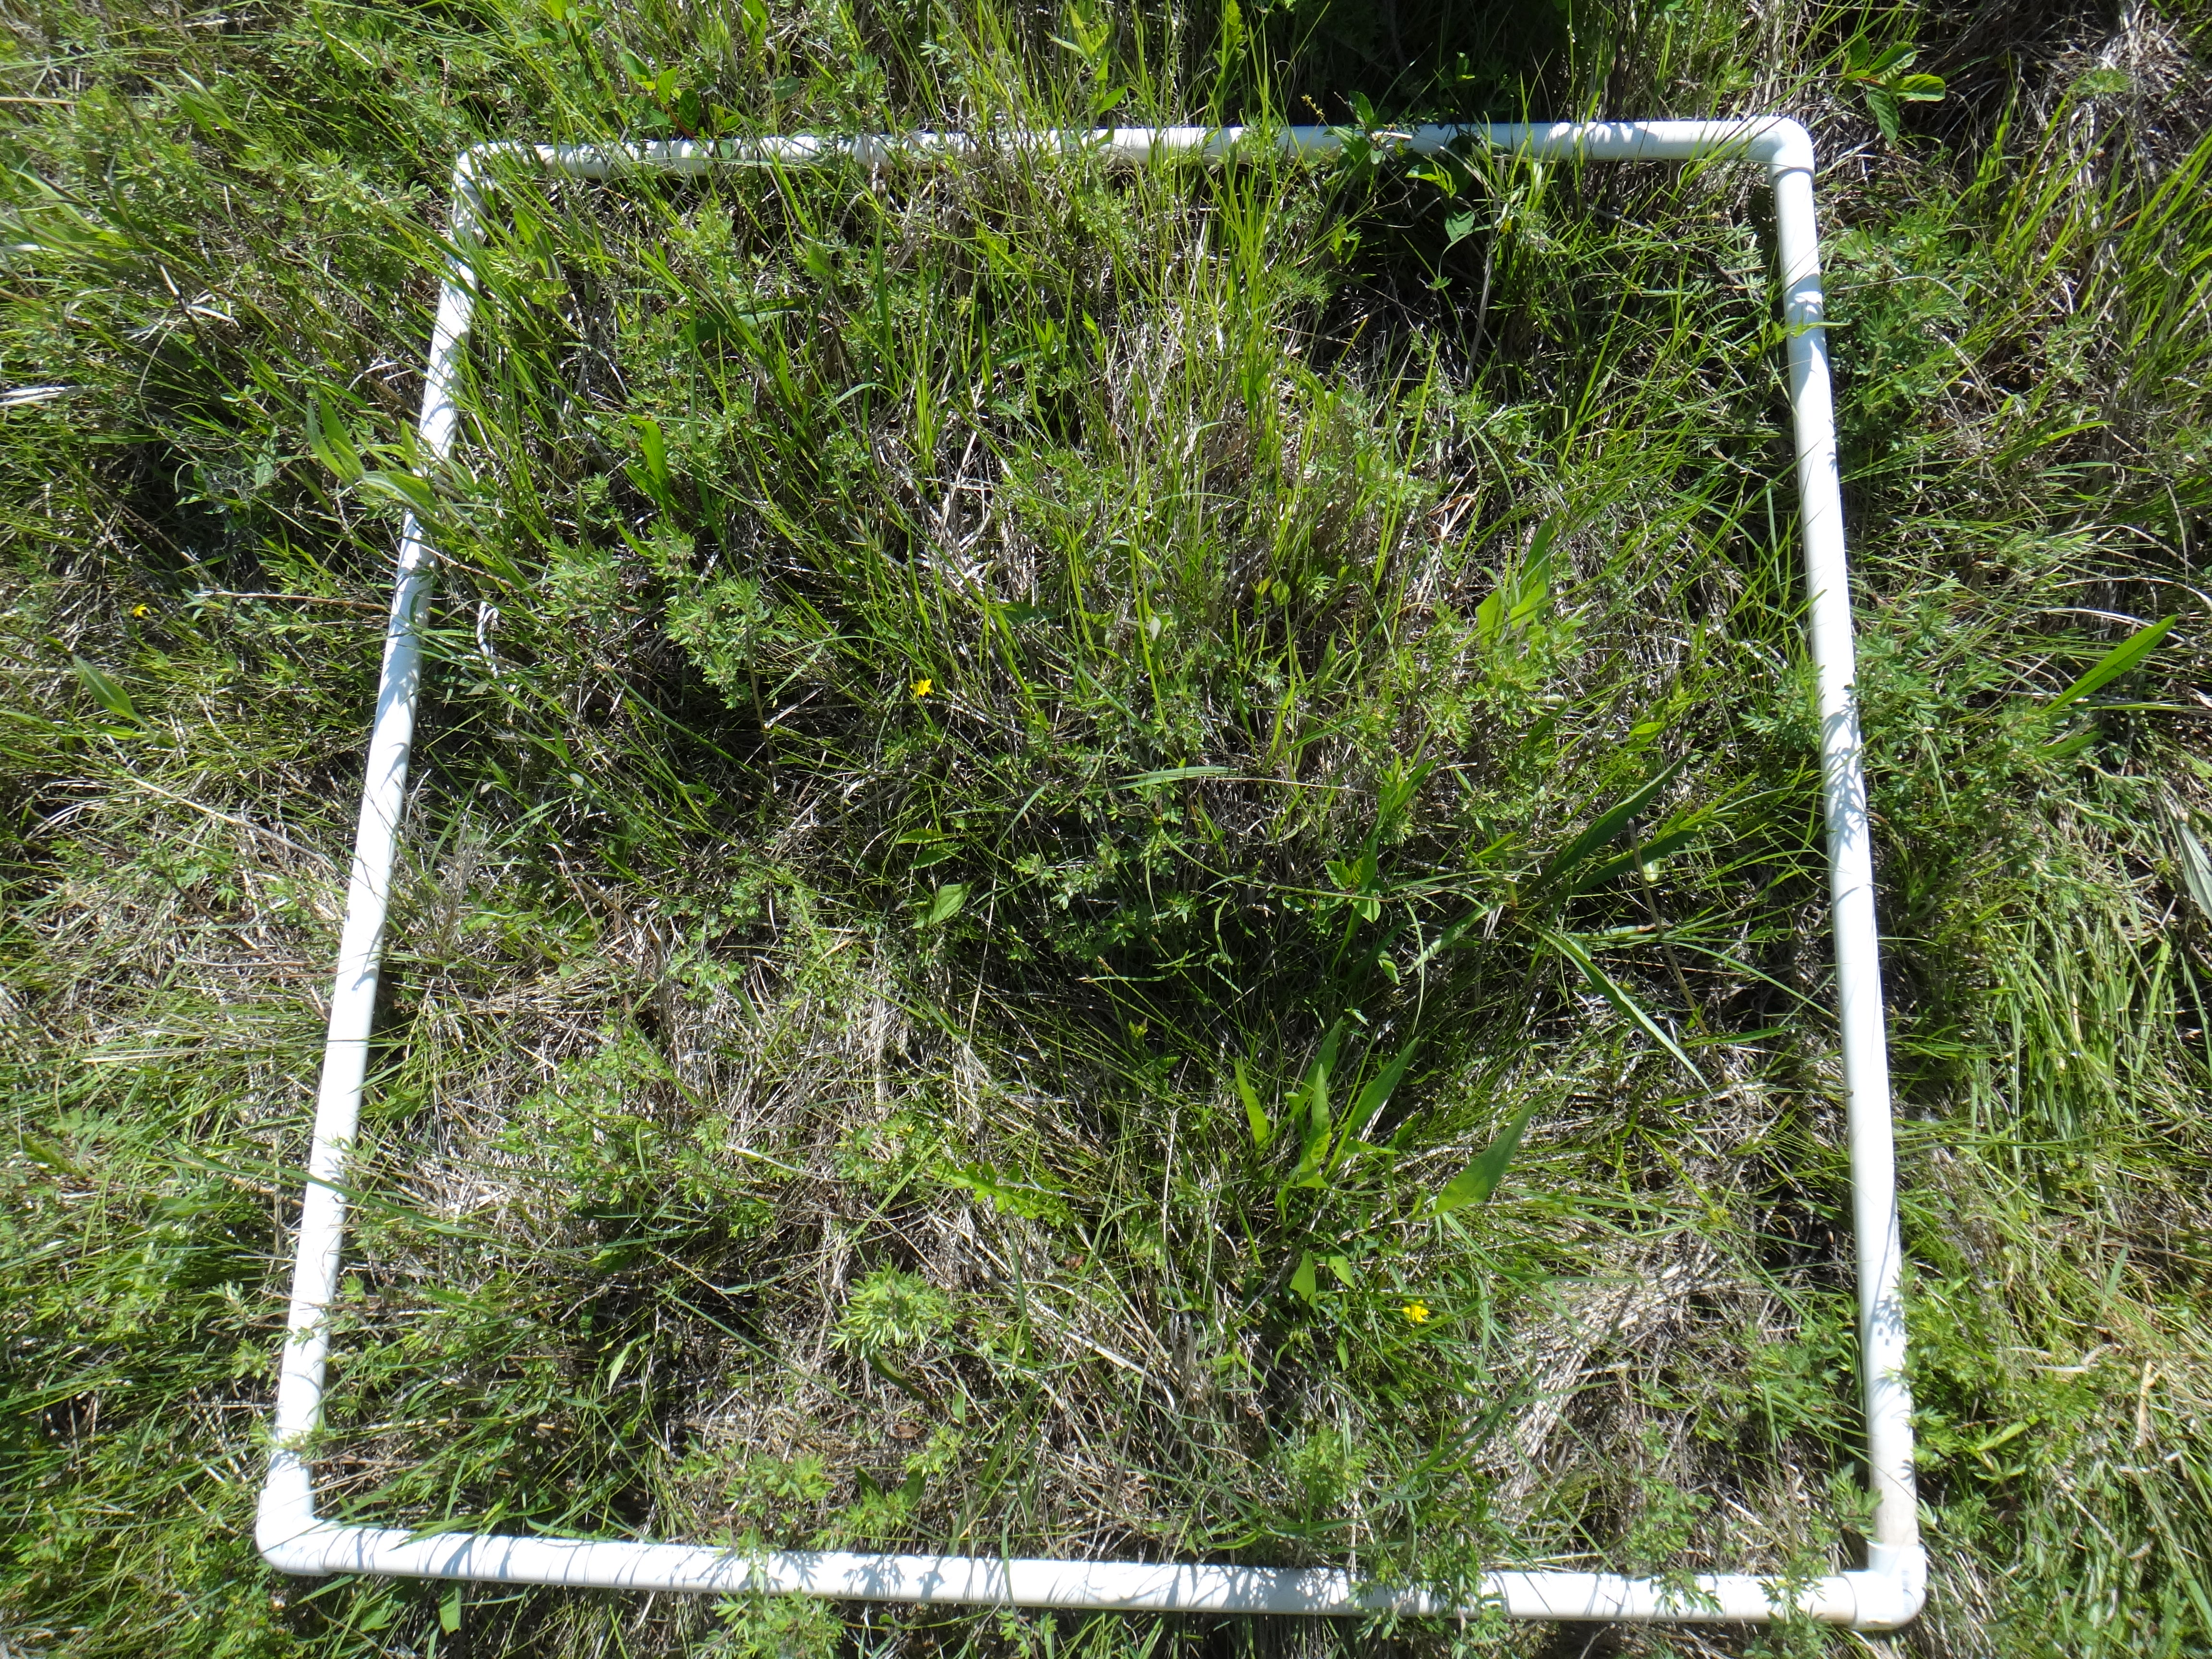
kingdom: Plantae
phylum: Tracheophyta
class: Magnoliopsida
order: Asterales
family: Asteraceae
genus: Symphyotrichum
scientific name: Symphyotrichum
